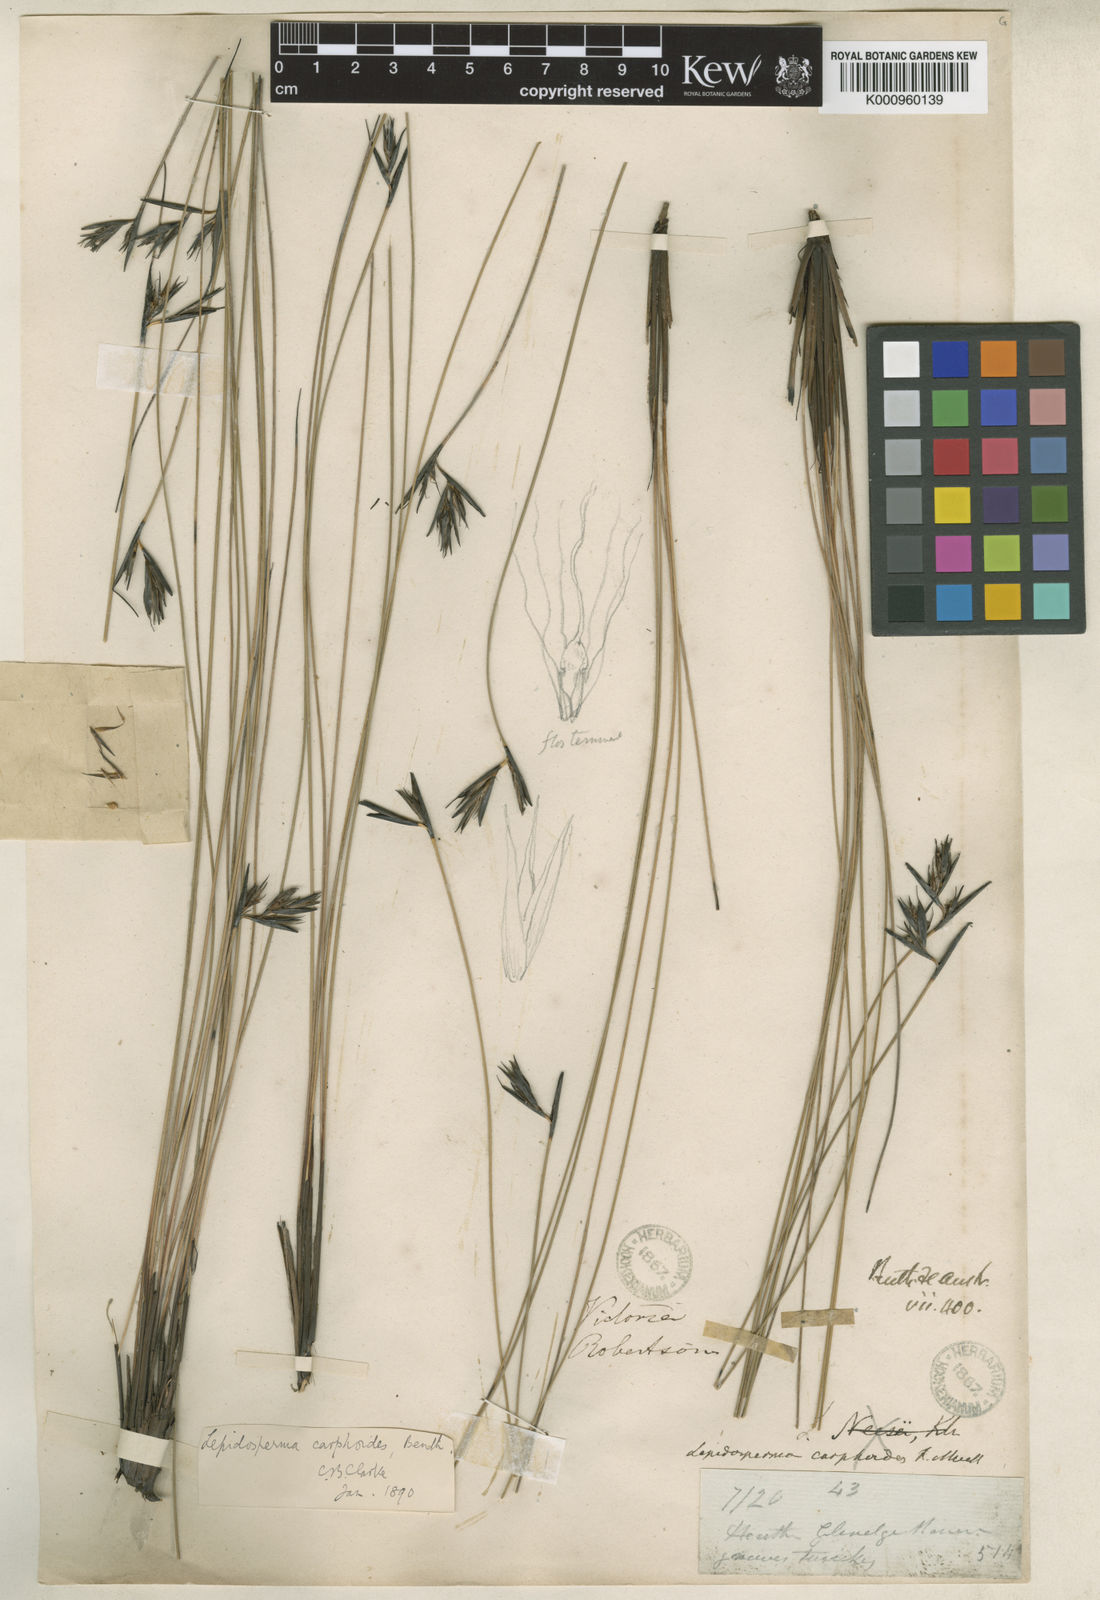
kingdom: Plantae
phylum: Tracheophyta
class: Liliopsida
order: Poales
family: Cyperaceae
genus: Lepidosperma
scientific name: Lepidosperma carphoides
